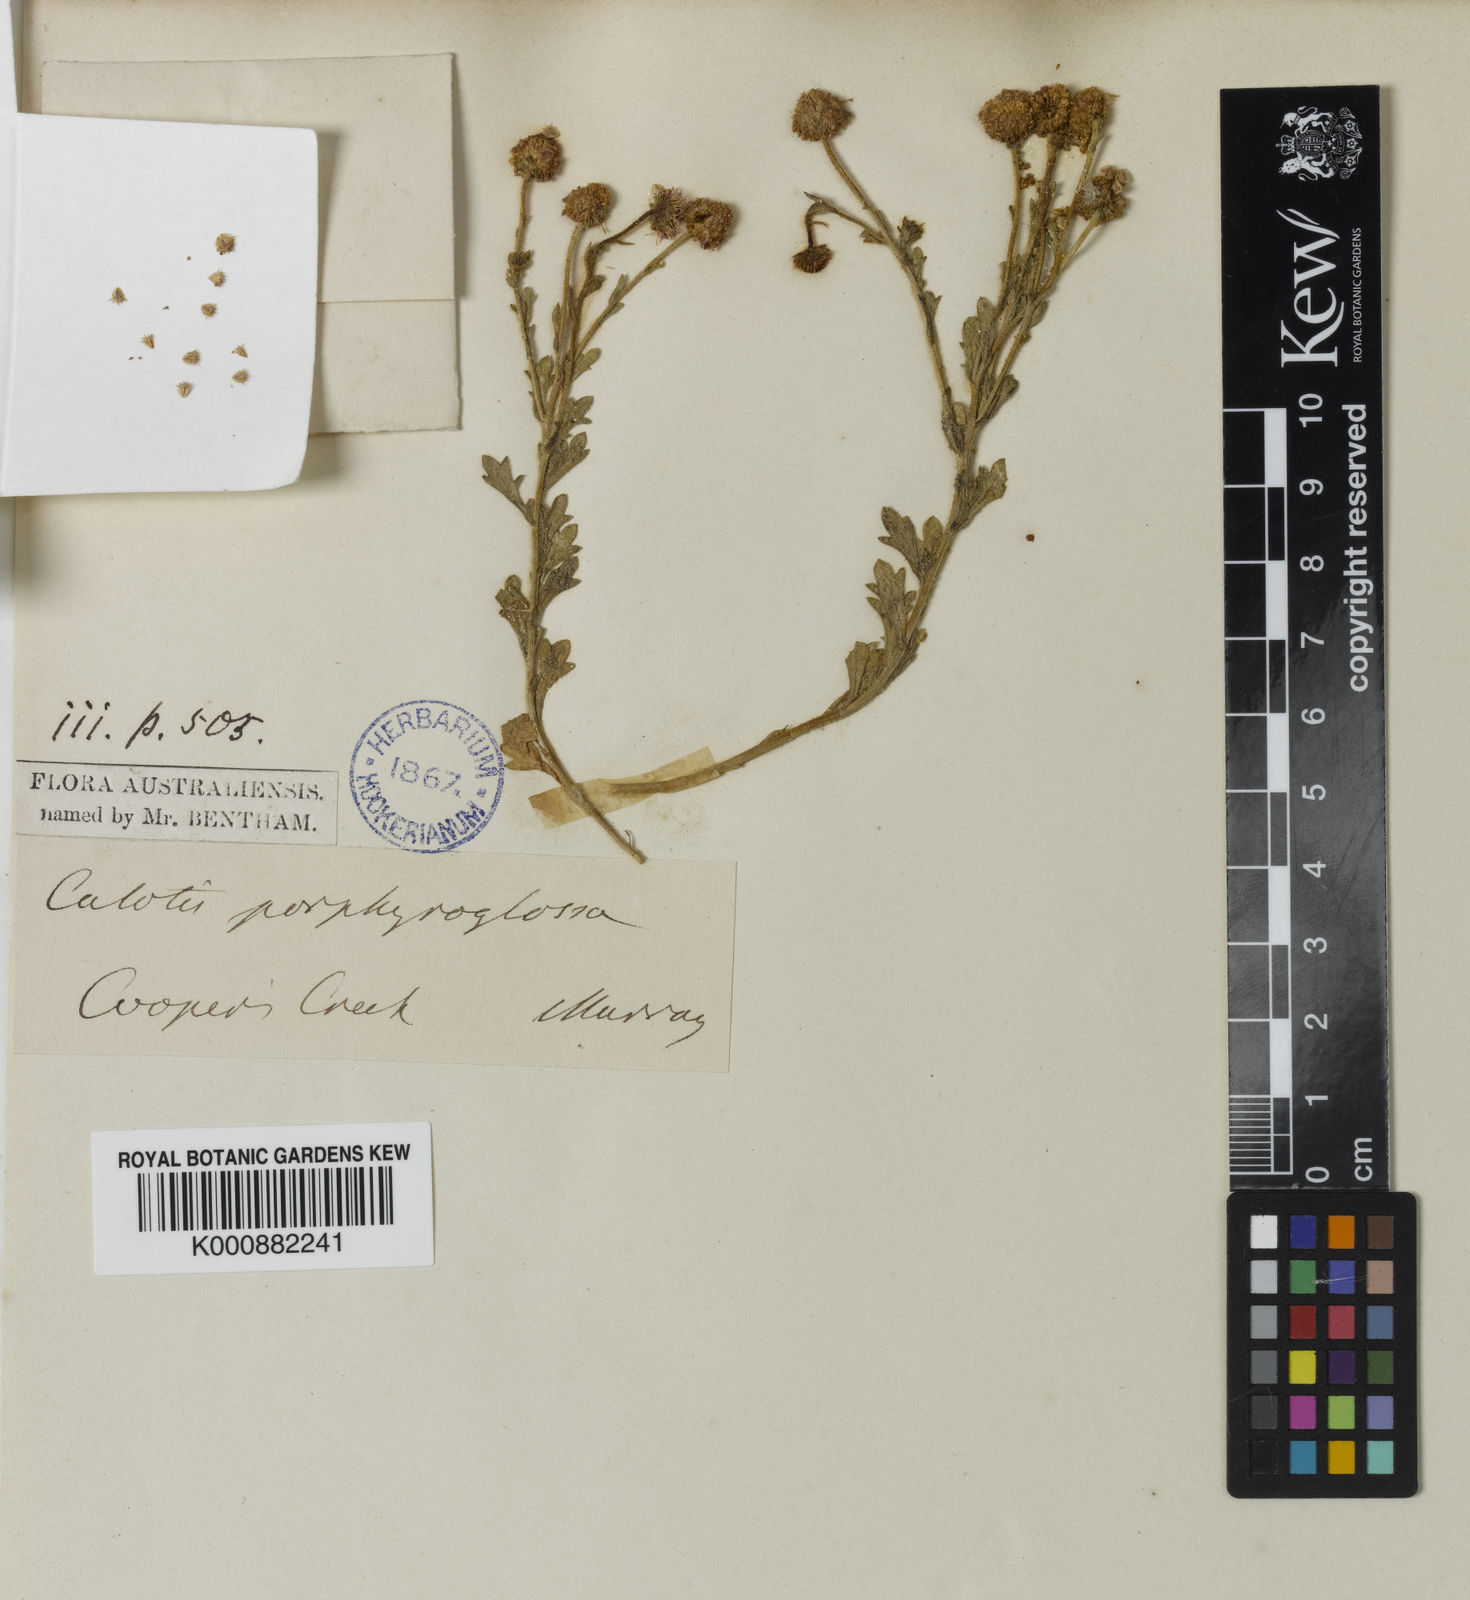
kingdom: Plantae
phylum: Tracheophyta
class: Magnoliopsida
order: Asterales
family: Asteraceae
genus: Calotis
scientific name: Calotis porphyroglossa
